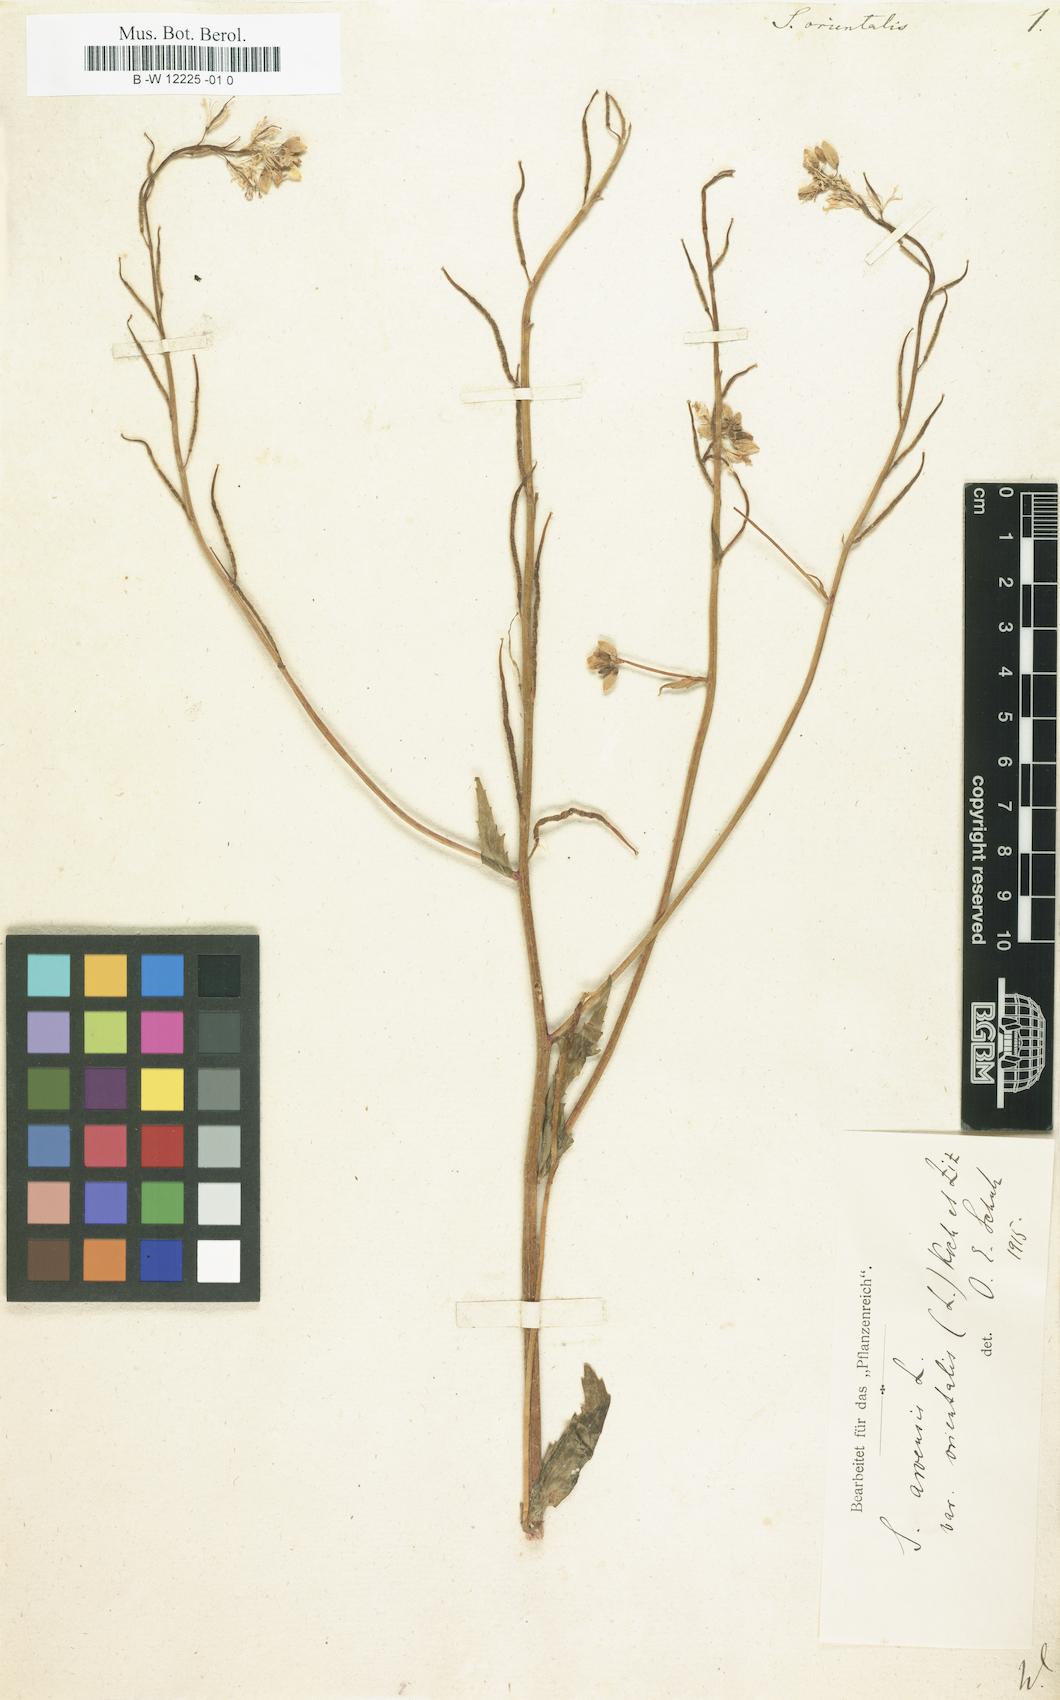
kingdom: Plantae
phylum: Tracheophyta
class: Magnoliopsida
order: Brassicales
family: Brassicaceae
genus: Sinapis
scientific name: Sinapis arvensis
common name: Charlock
